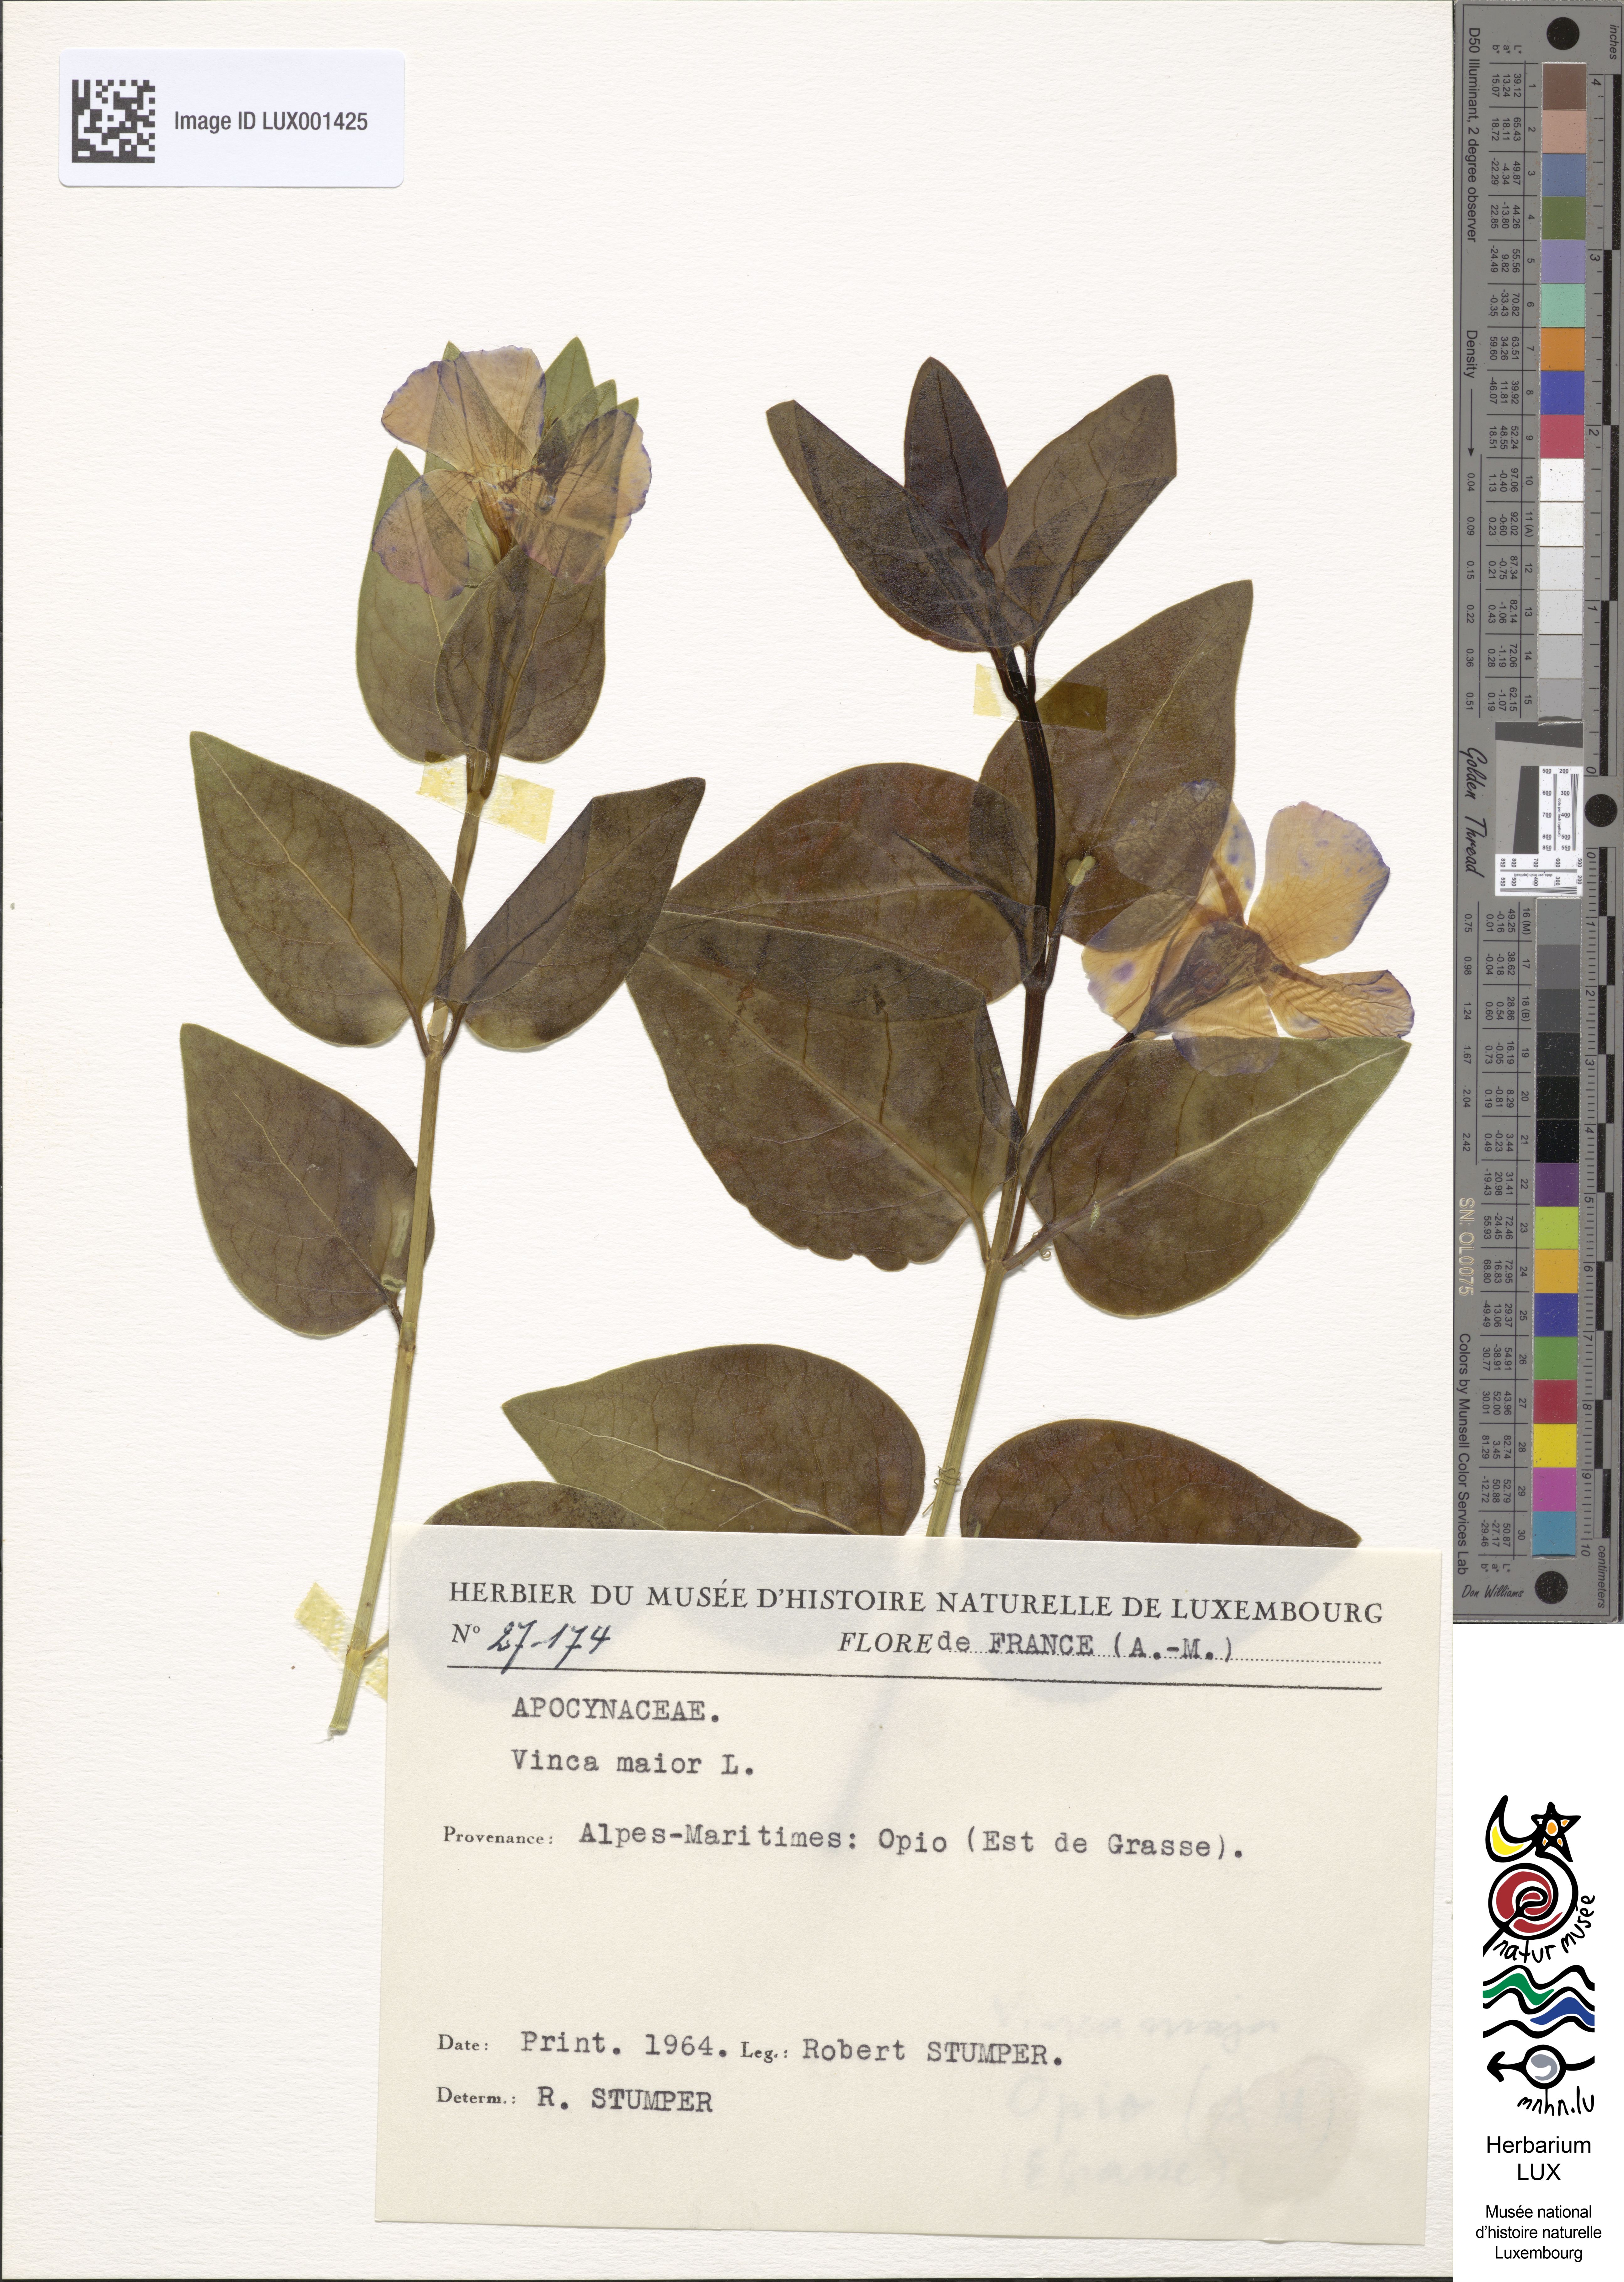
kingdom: Plantae
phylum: Tracheophyta
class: Magnoliopsida
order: Gentianales
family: Apocynaceae
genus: Vinca
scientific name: Vinca major
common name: Greater periwinkle
